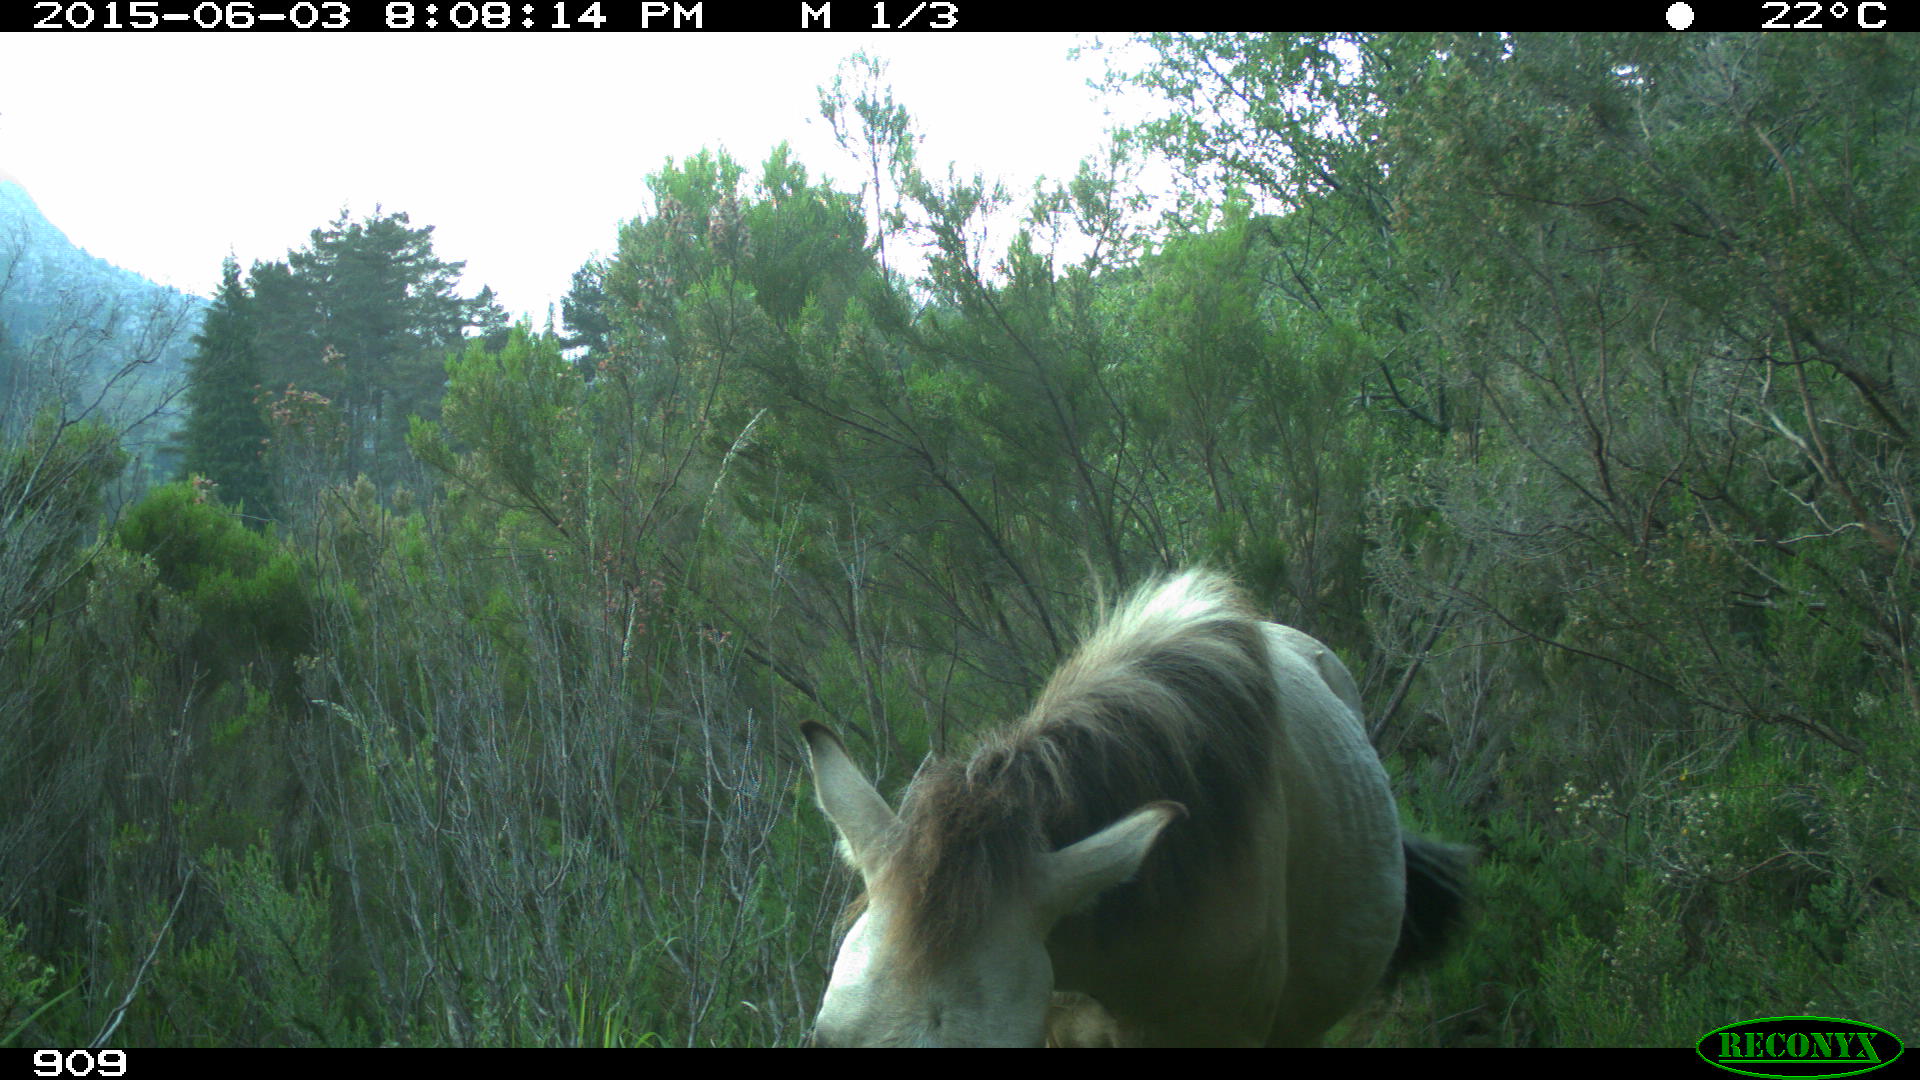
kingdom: Animalia
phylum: Chordata
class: Mammalia
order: Perissodactyla
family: Equidae
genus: Equus
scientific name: Equus caballus
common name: Horse
